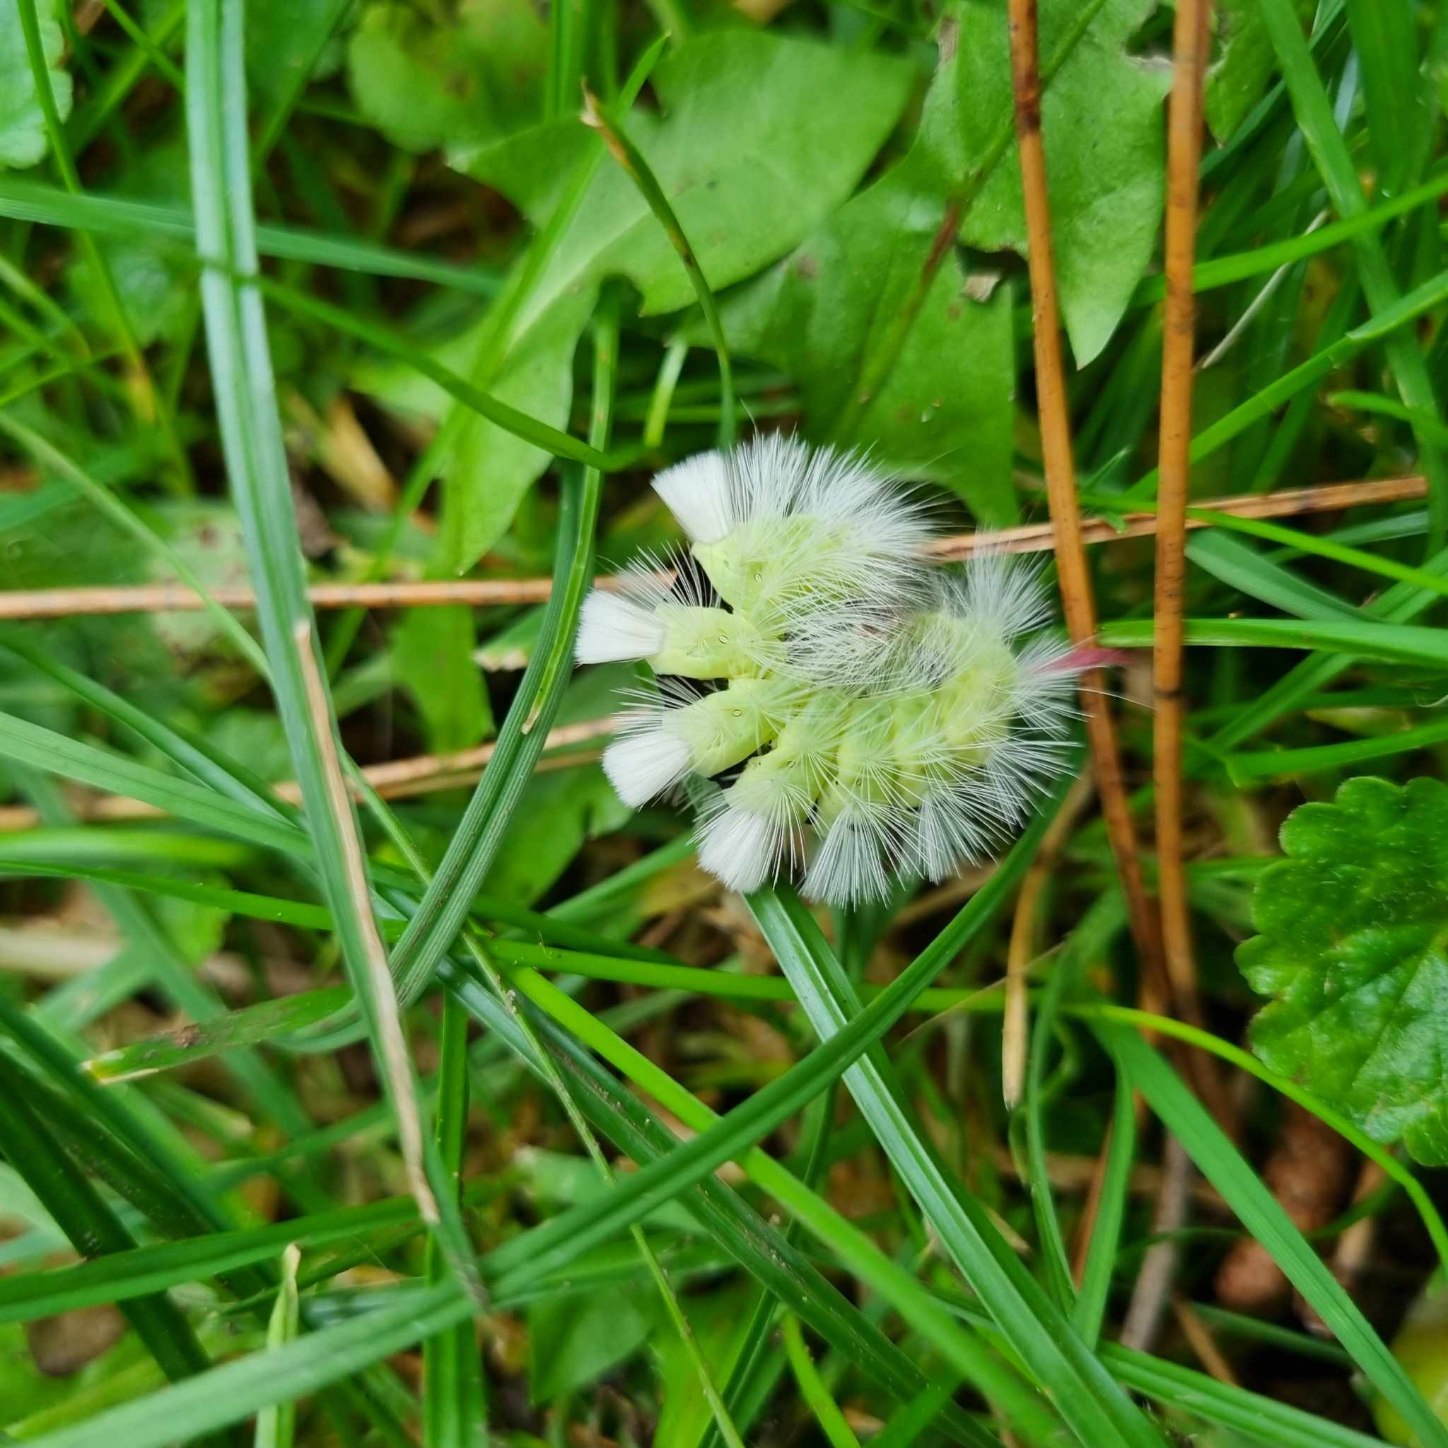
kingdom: Animalia
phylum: Arthropoda
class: Insecta
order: Lepidoptera
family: Erebidae
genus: Calliteara
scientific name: Calliteara pudibunda
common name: Bøgenonne
